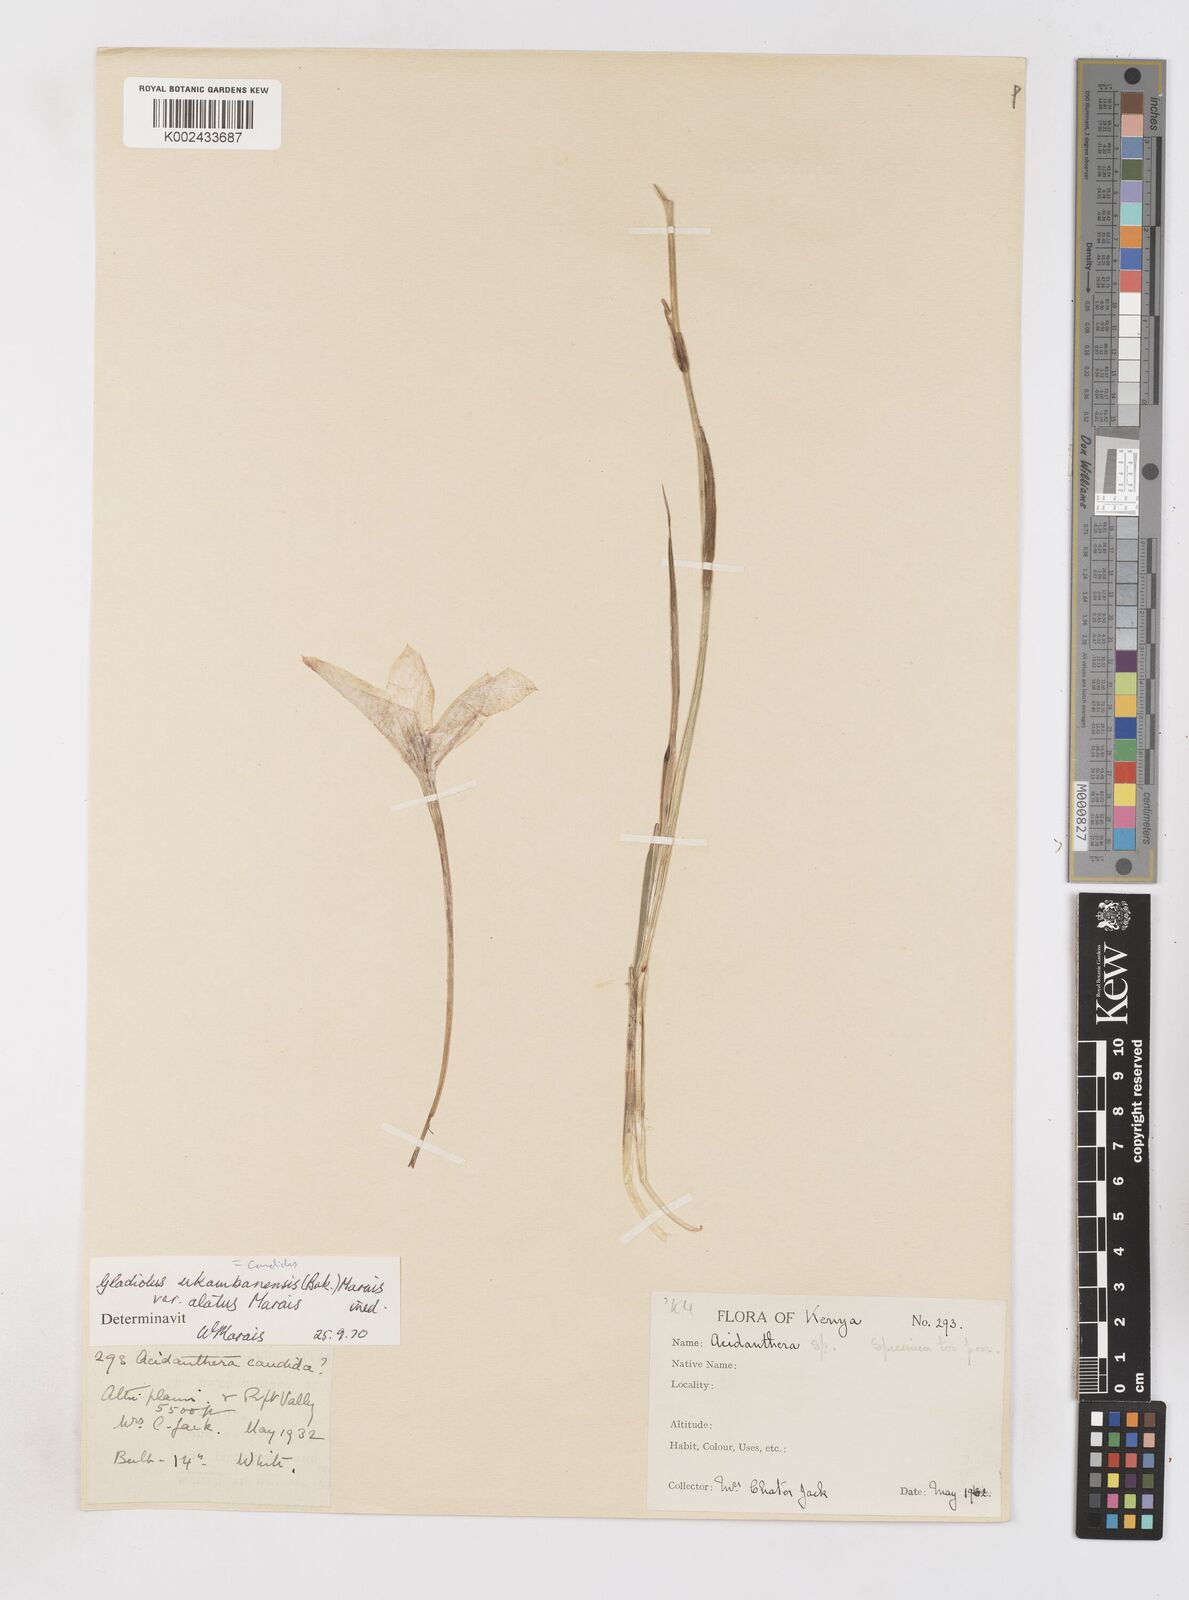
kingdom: Plantae
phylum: Tracheophyta
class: Liliopsida
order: Asparagales
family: Iridaceae
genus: Gladiolus
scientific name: Gladiolus candidus
